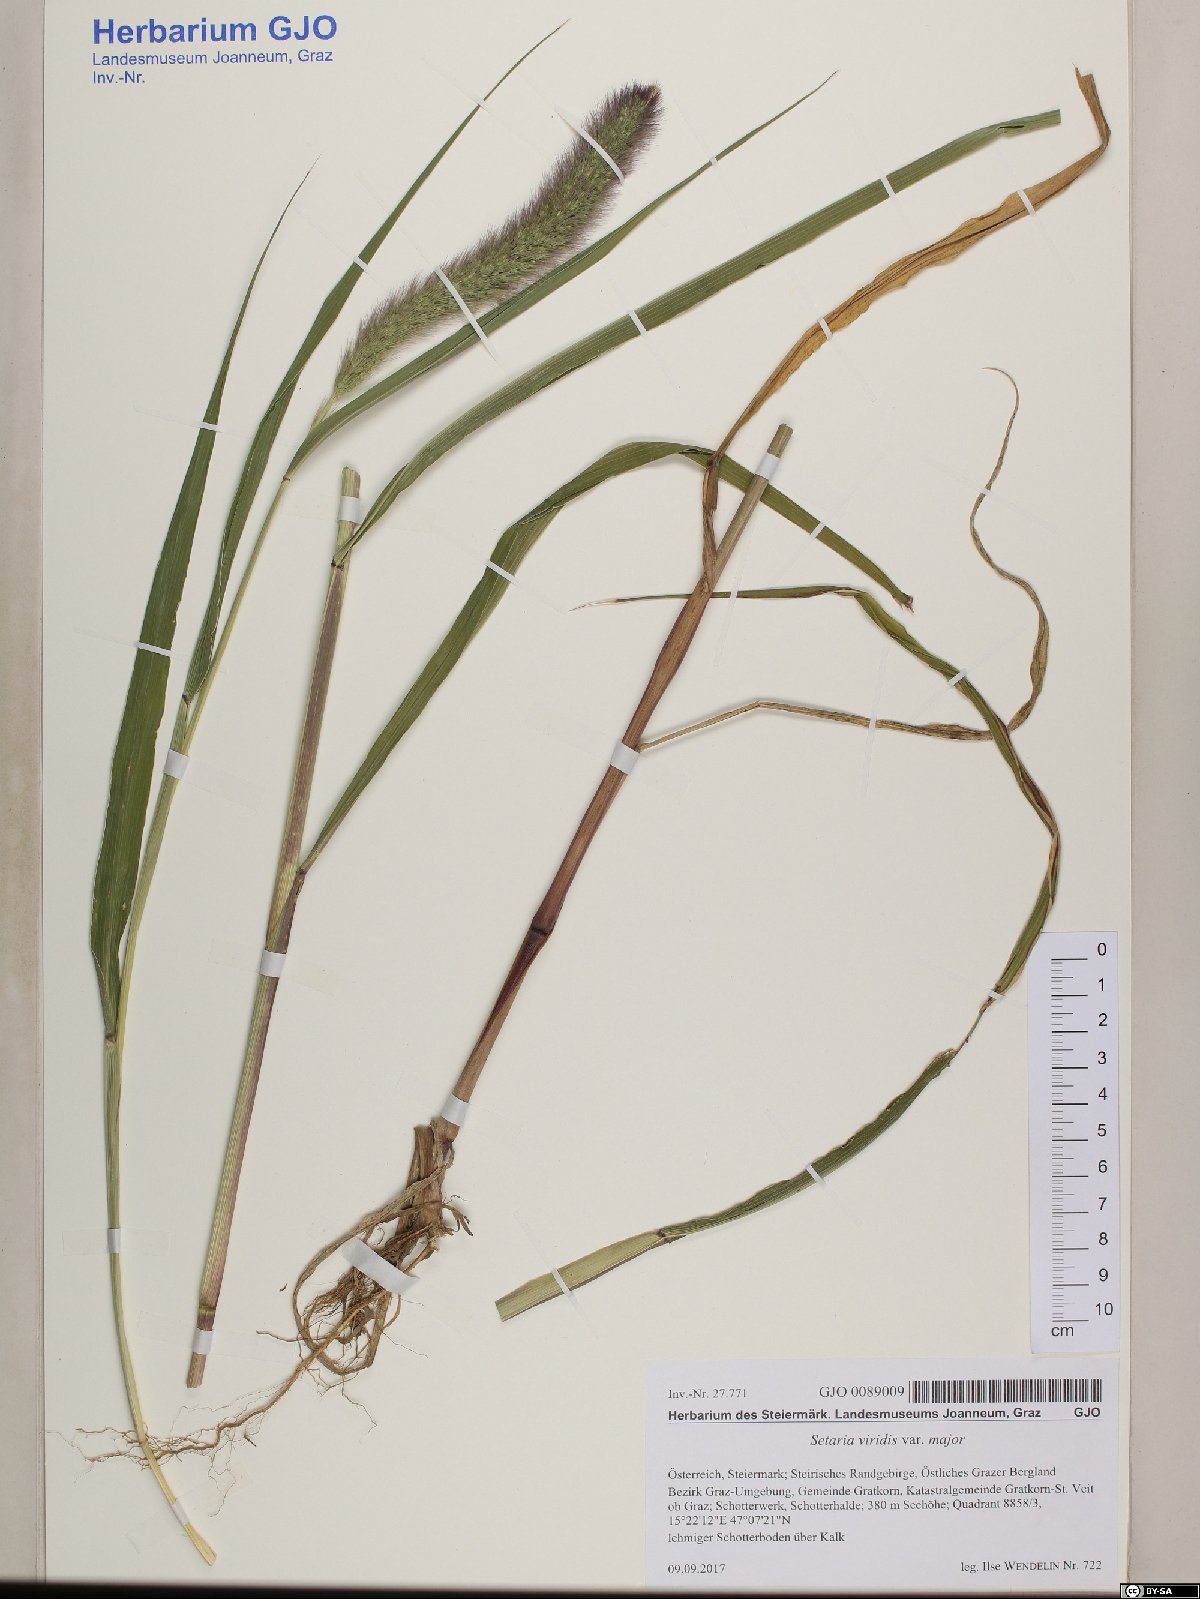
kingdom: Plantae
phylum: Tracheophyta
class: Liliopsida
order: Poales
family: Poaceae
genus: Setaria
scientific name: Setaria viridis
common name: Green bristlegrass
